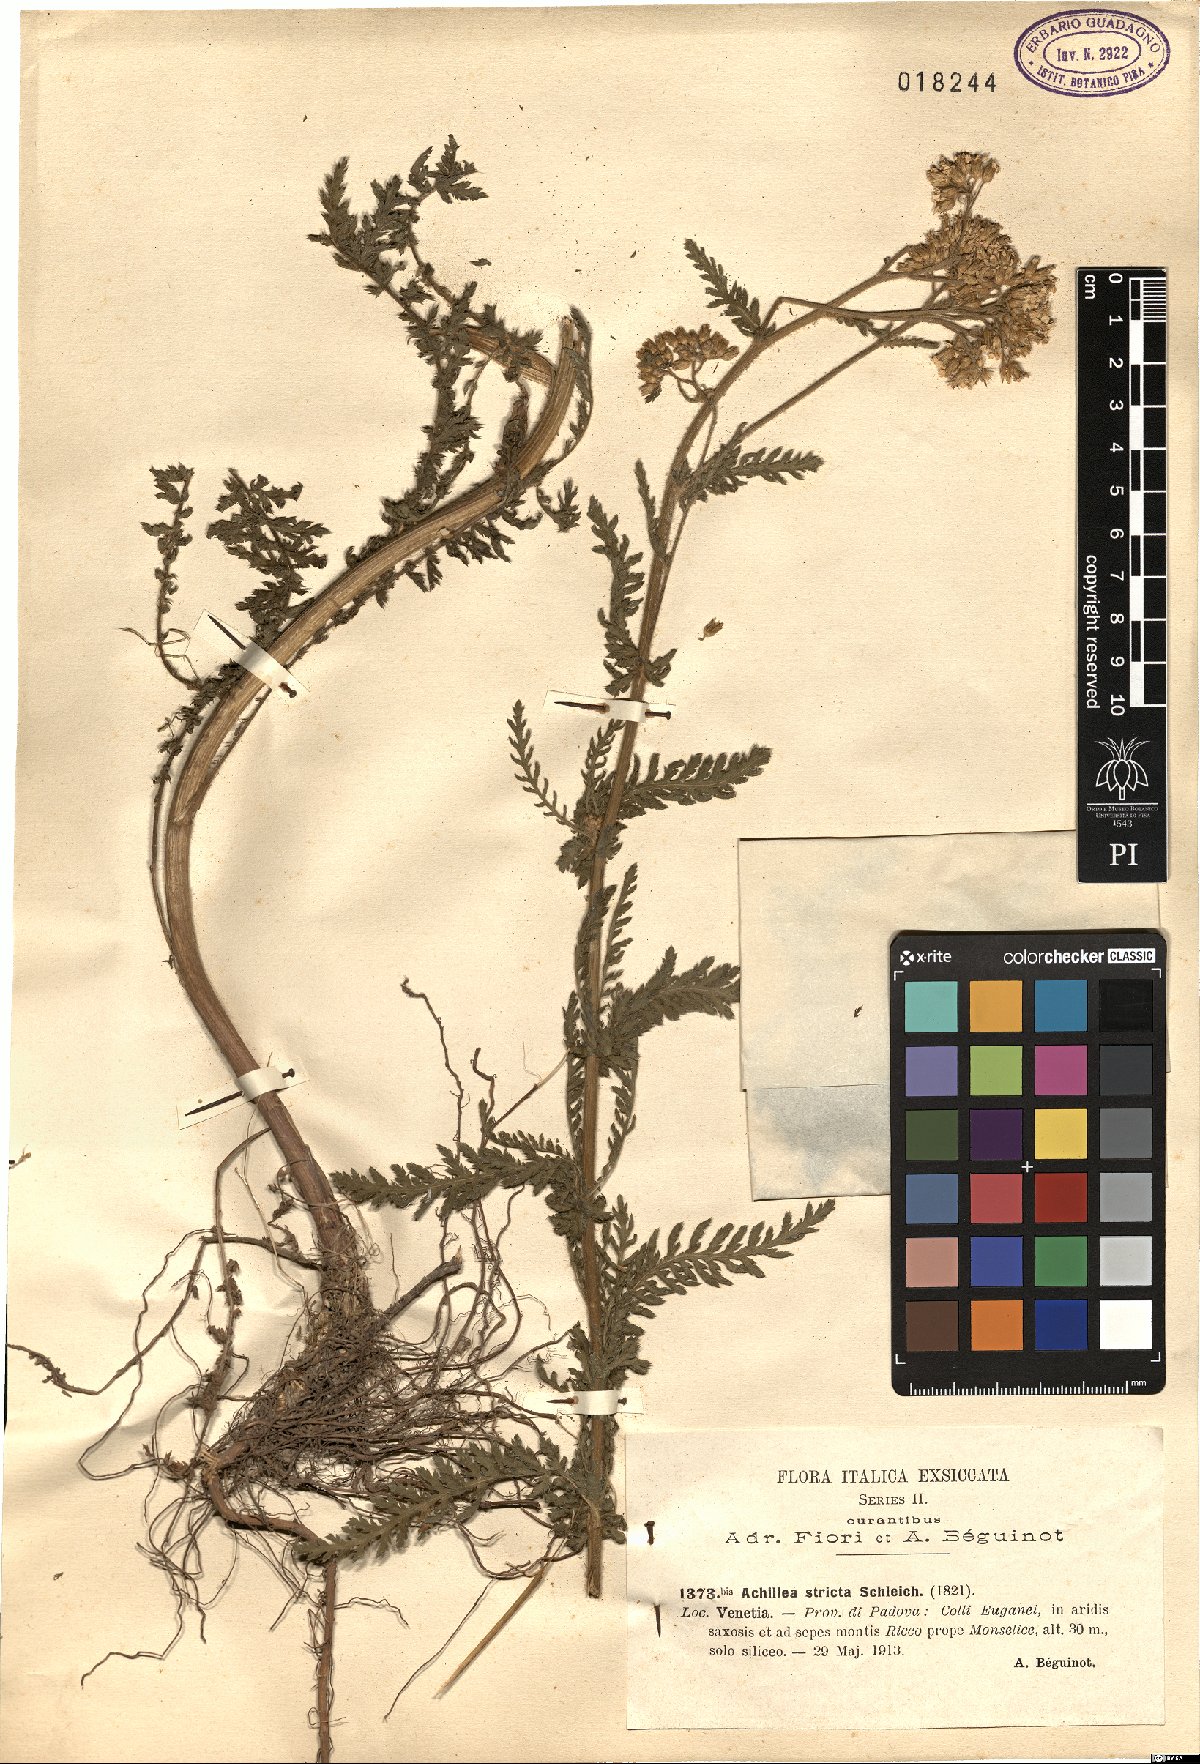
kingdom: Plantae
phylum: Tracheophyta
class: Magnoliopsida
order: Asterales
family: Asteraceae
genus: Achillea
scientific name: Achillea distans
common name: Tall yarrow
